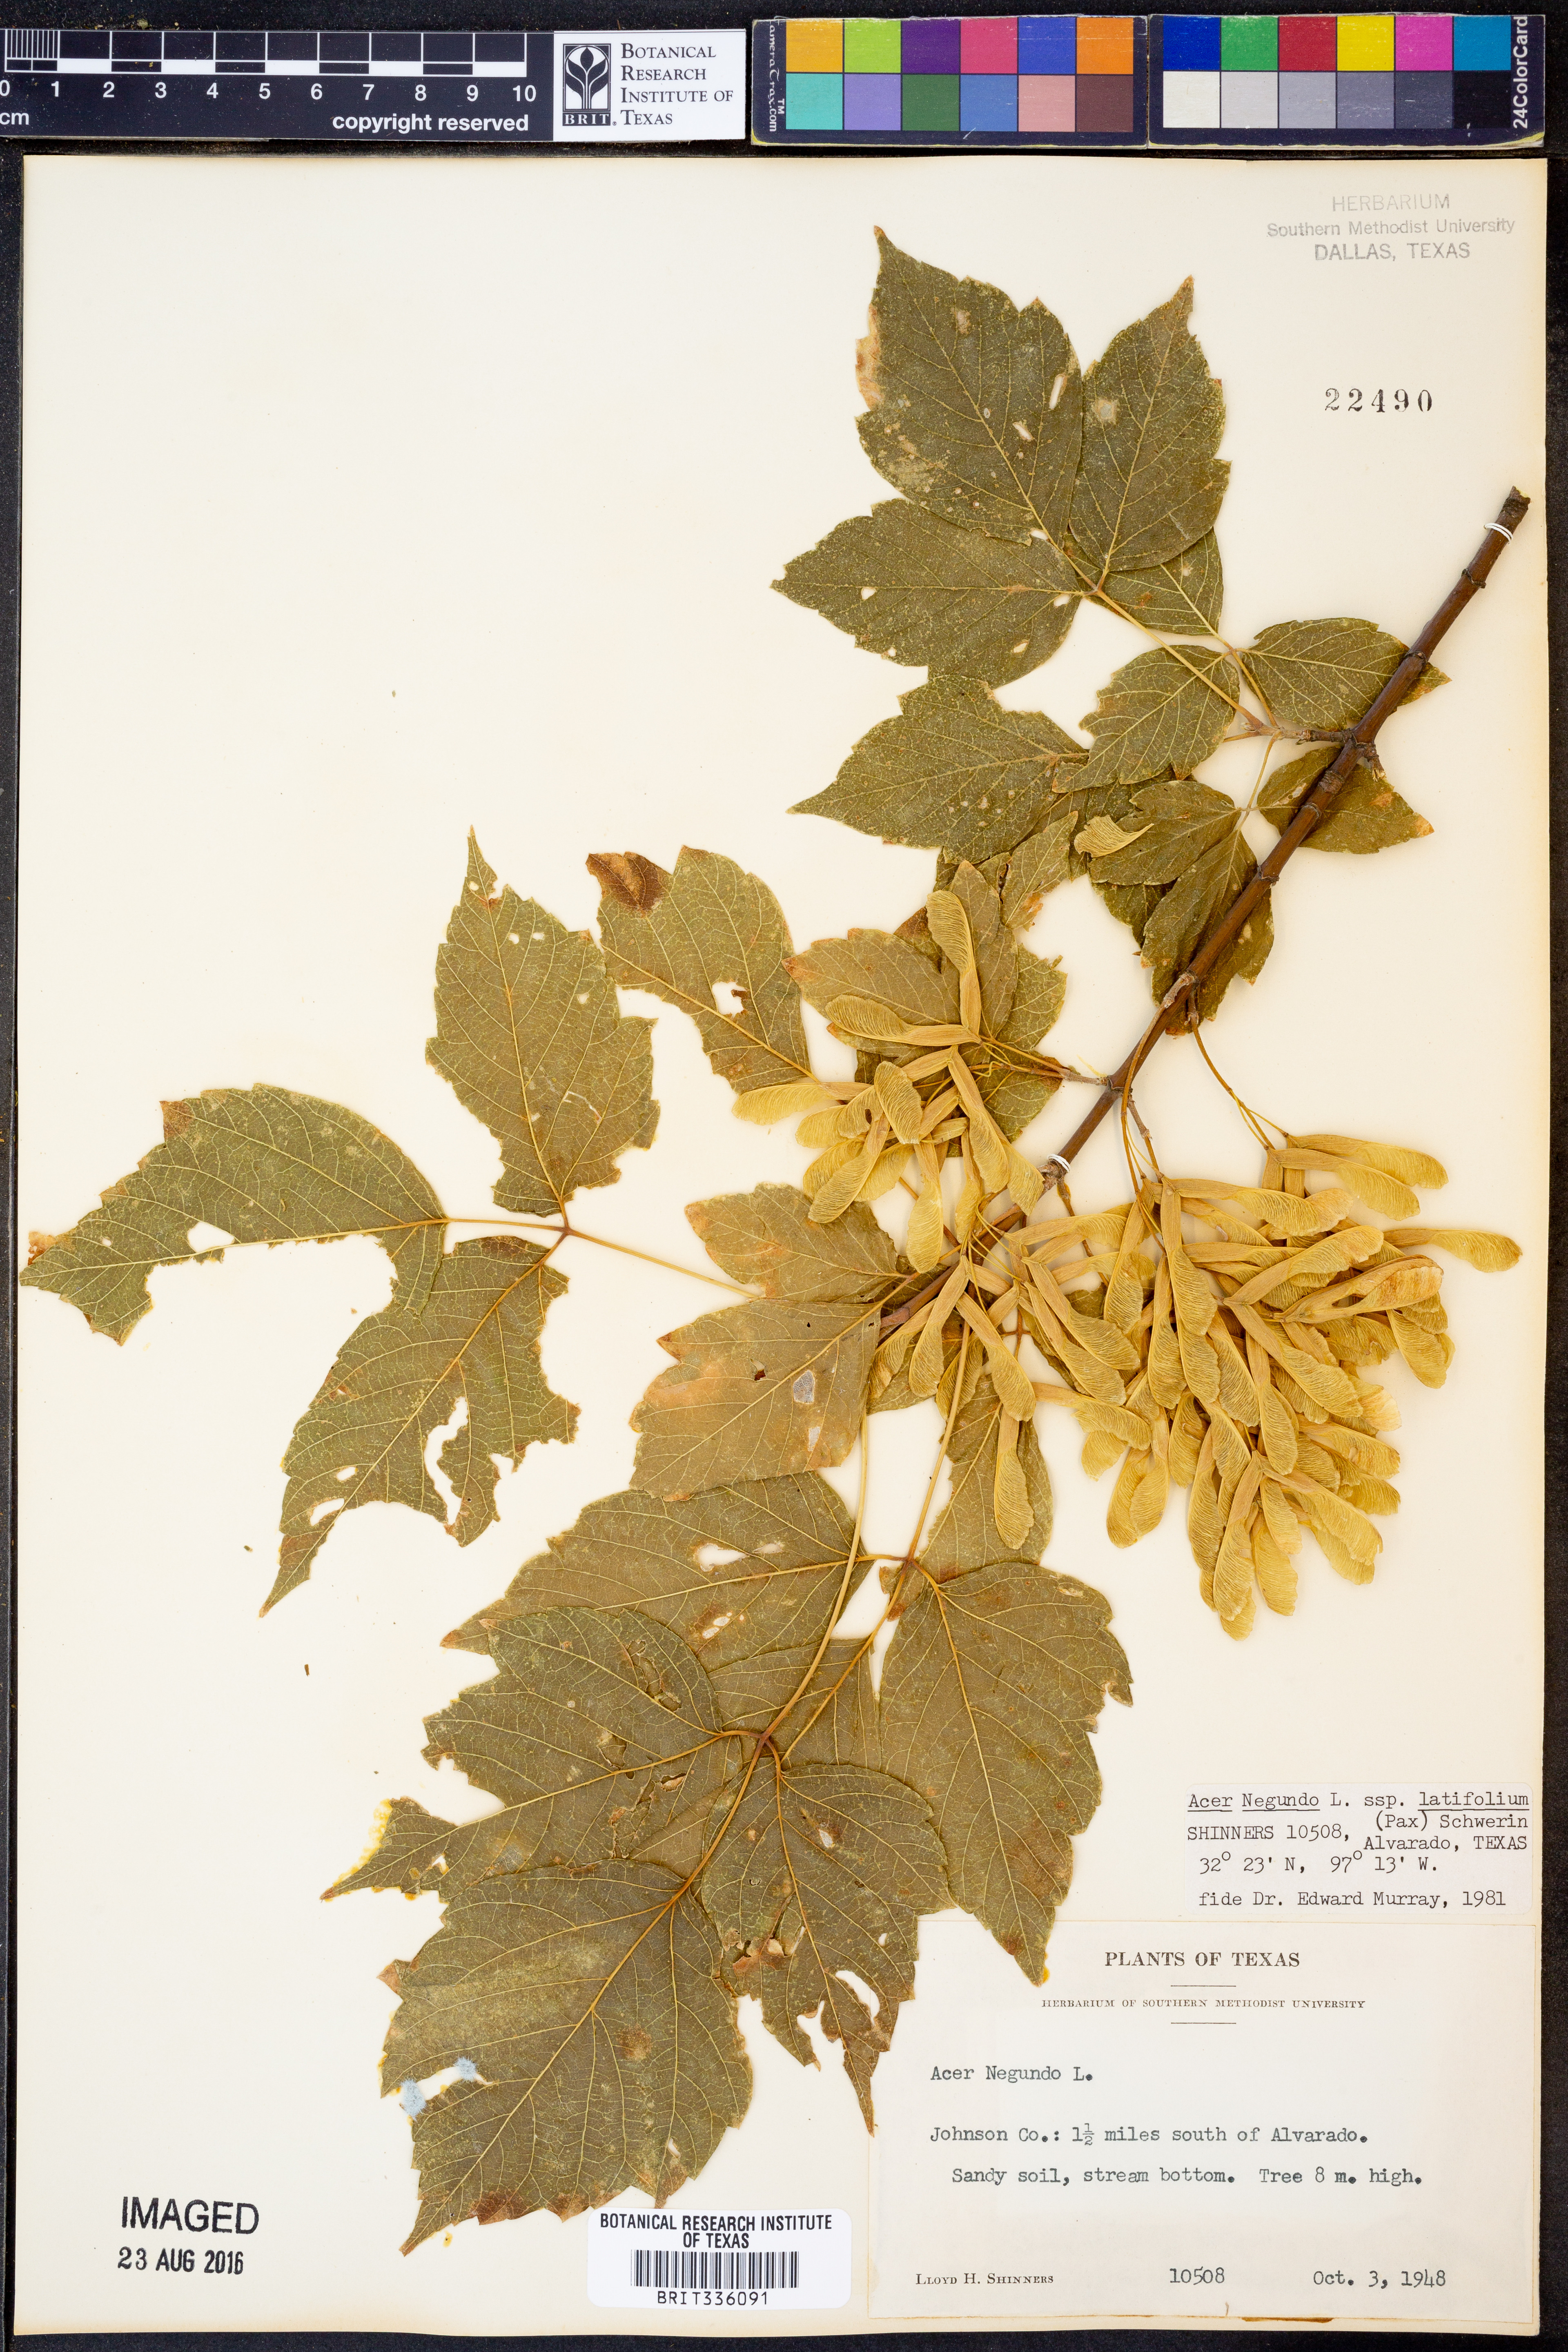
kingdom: Plantae
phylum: Tracheophyta
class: Magnoliopsida
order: Sapindales
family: Sapindaceae
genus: Acer
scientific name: Acer negundo
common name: Ashleaf maple
